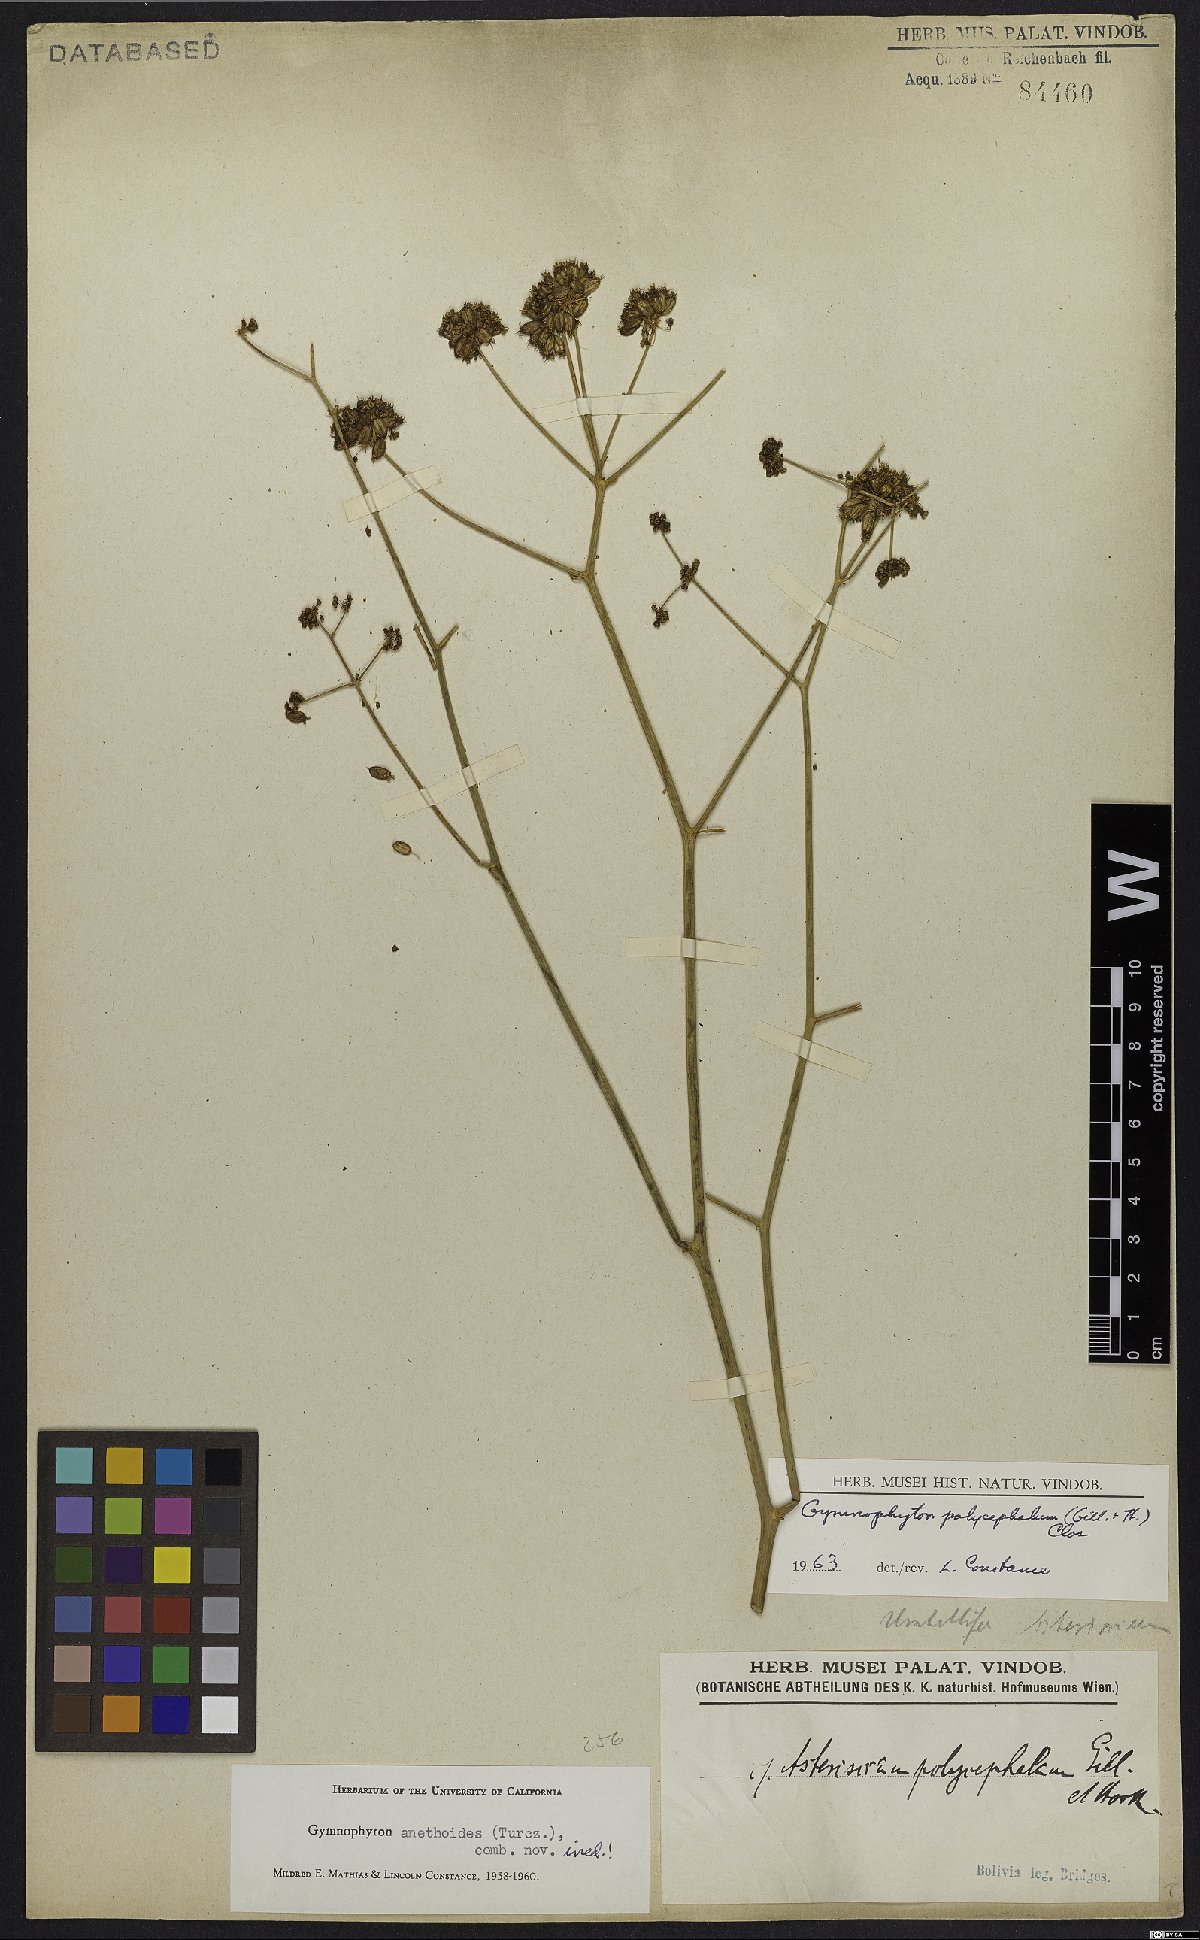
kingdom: Plantae
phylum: Tracheophyta
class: Magnoliopsida
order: Apiales
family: Apiaceae
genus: Gymnophyton
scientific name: Gymnophyton polycephalum
